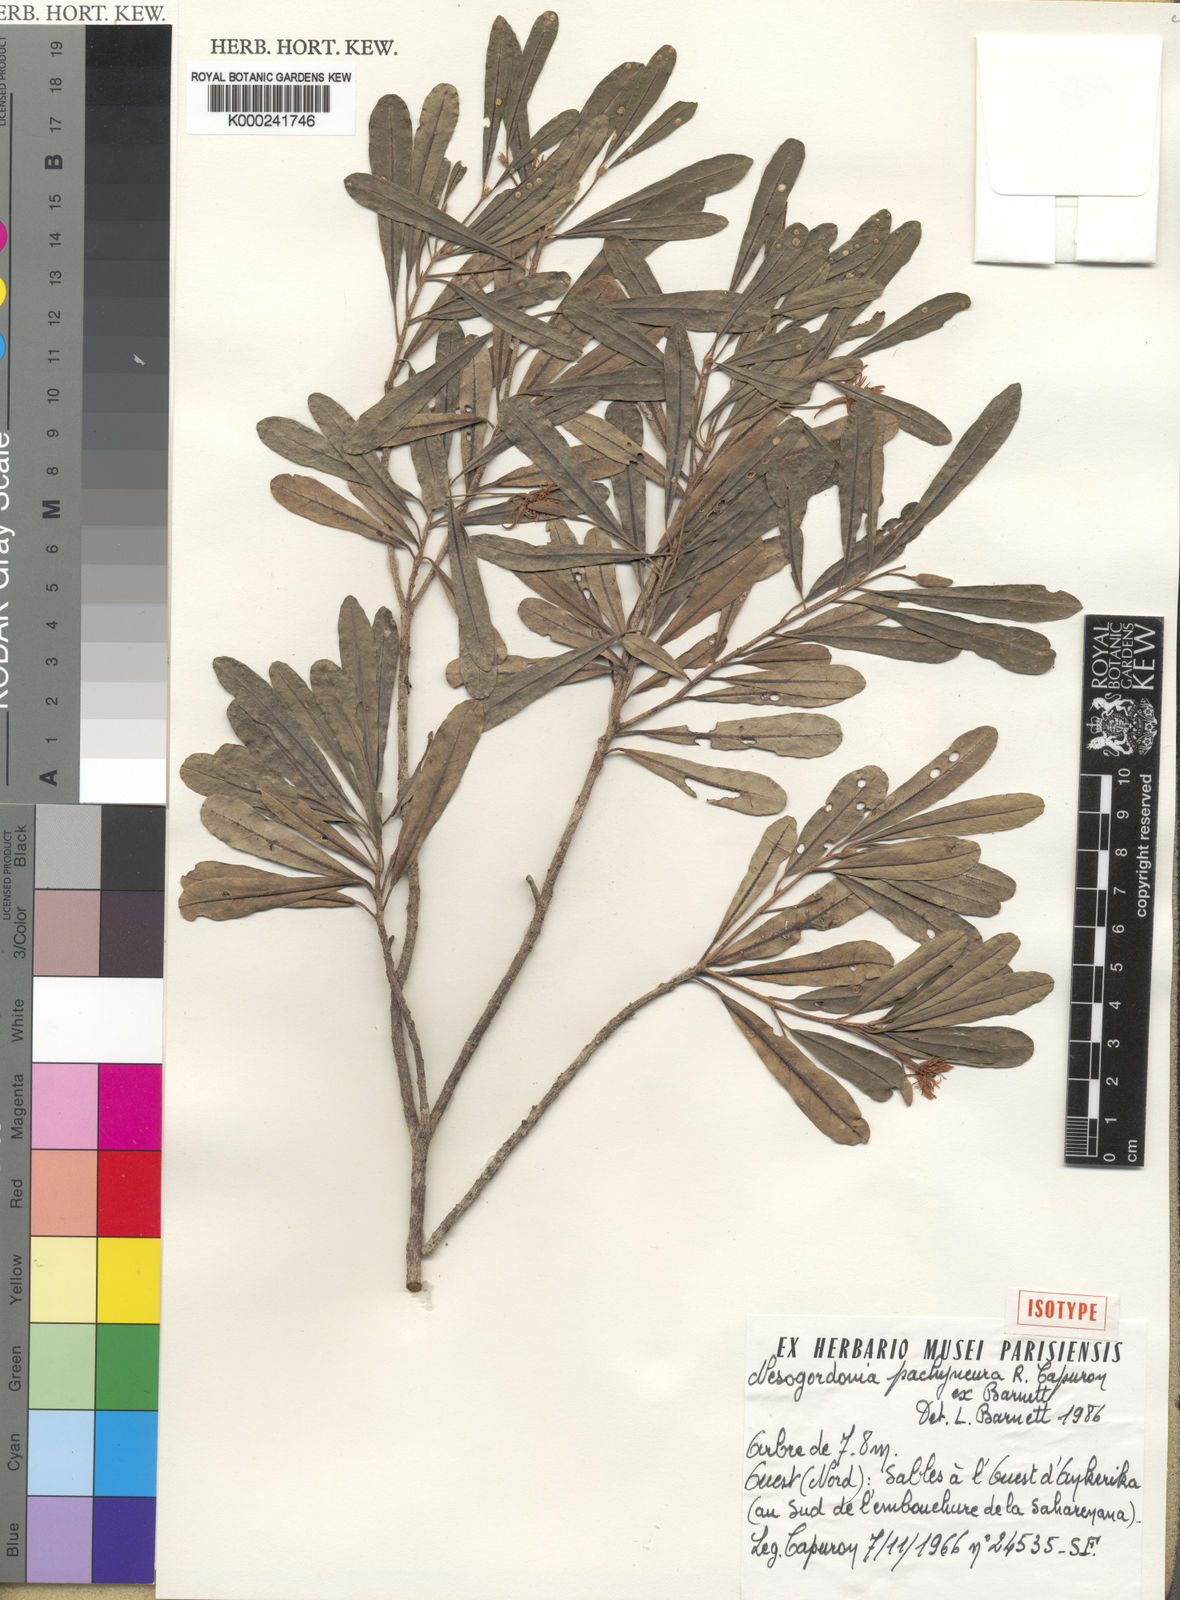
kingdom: Plantae
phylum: Tracheophyta
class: Magnoliopsida
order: Malvales
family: Malvaceae
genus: Nesogordonia
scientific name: Nesogordonia pachyneura
